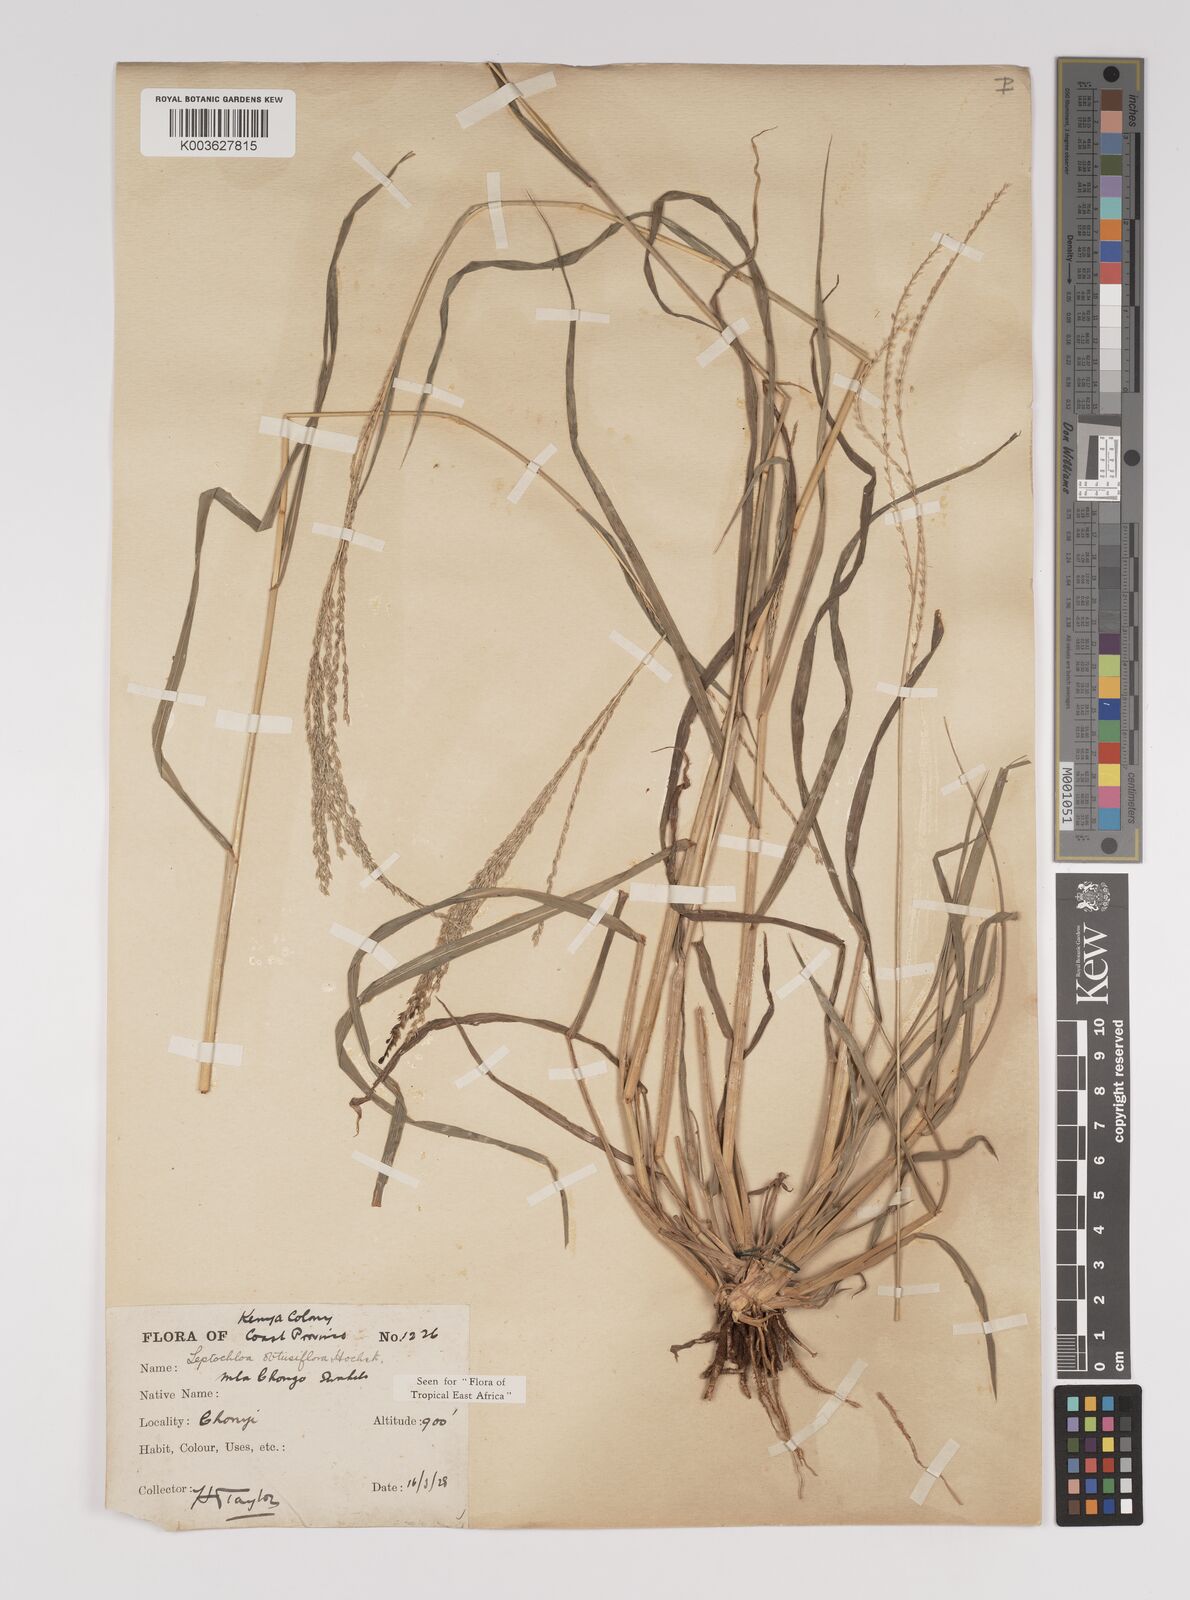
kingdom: Plantae
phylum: Tracheophyta
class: Liliopsida
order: Poales
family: Poaceae
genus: Disakisperma
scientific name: Disakisperma obtusiflorum
